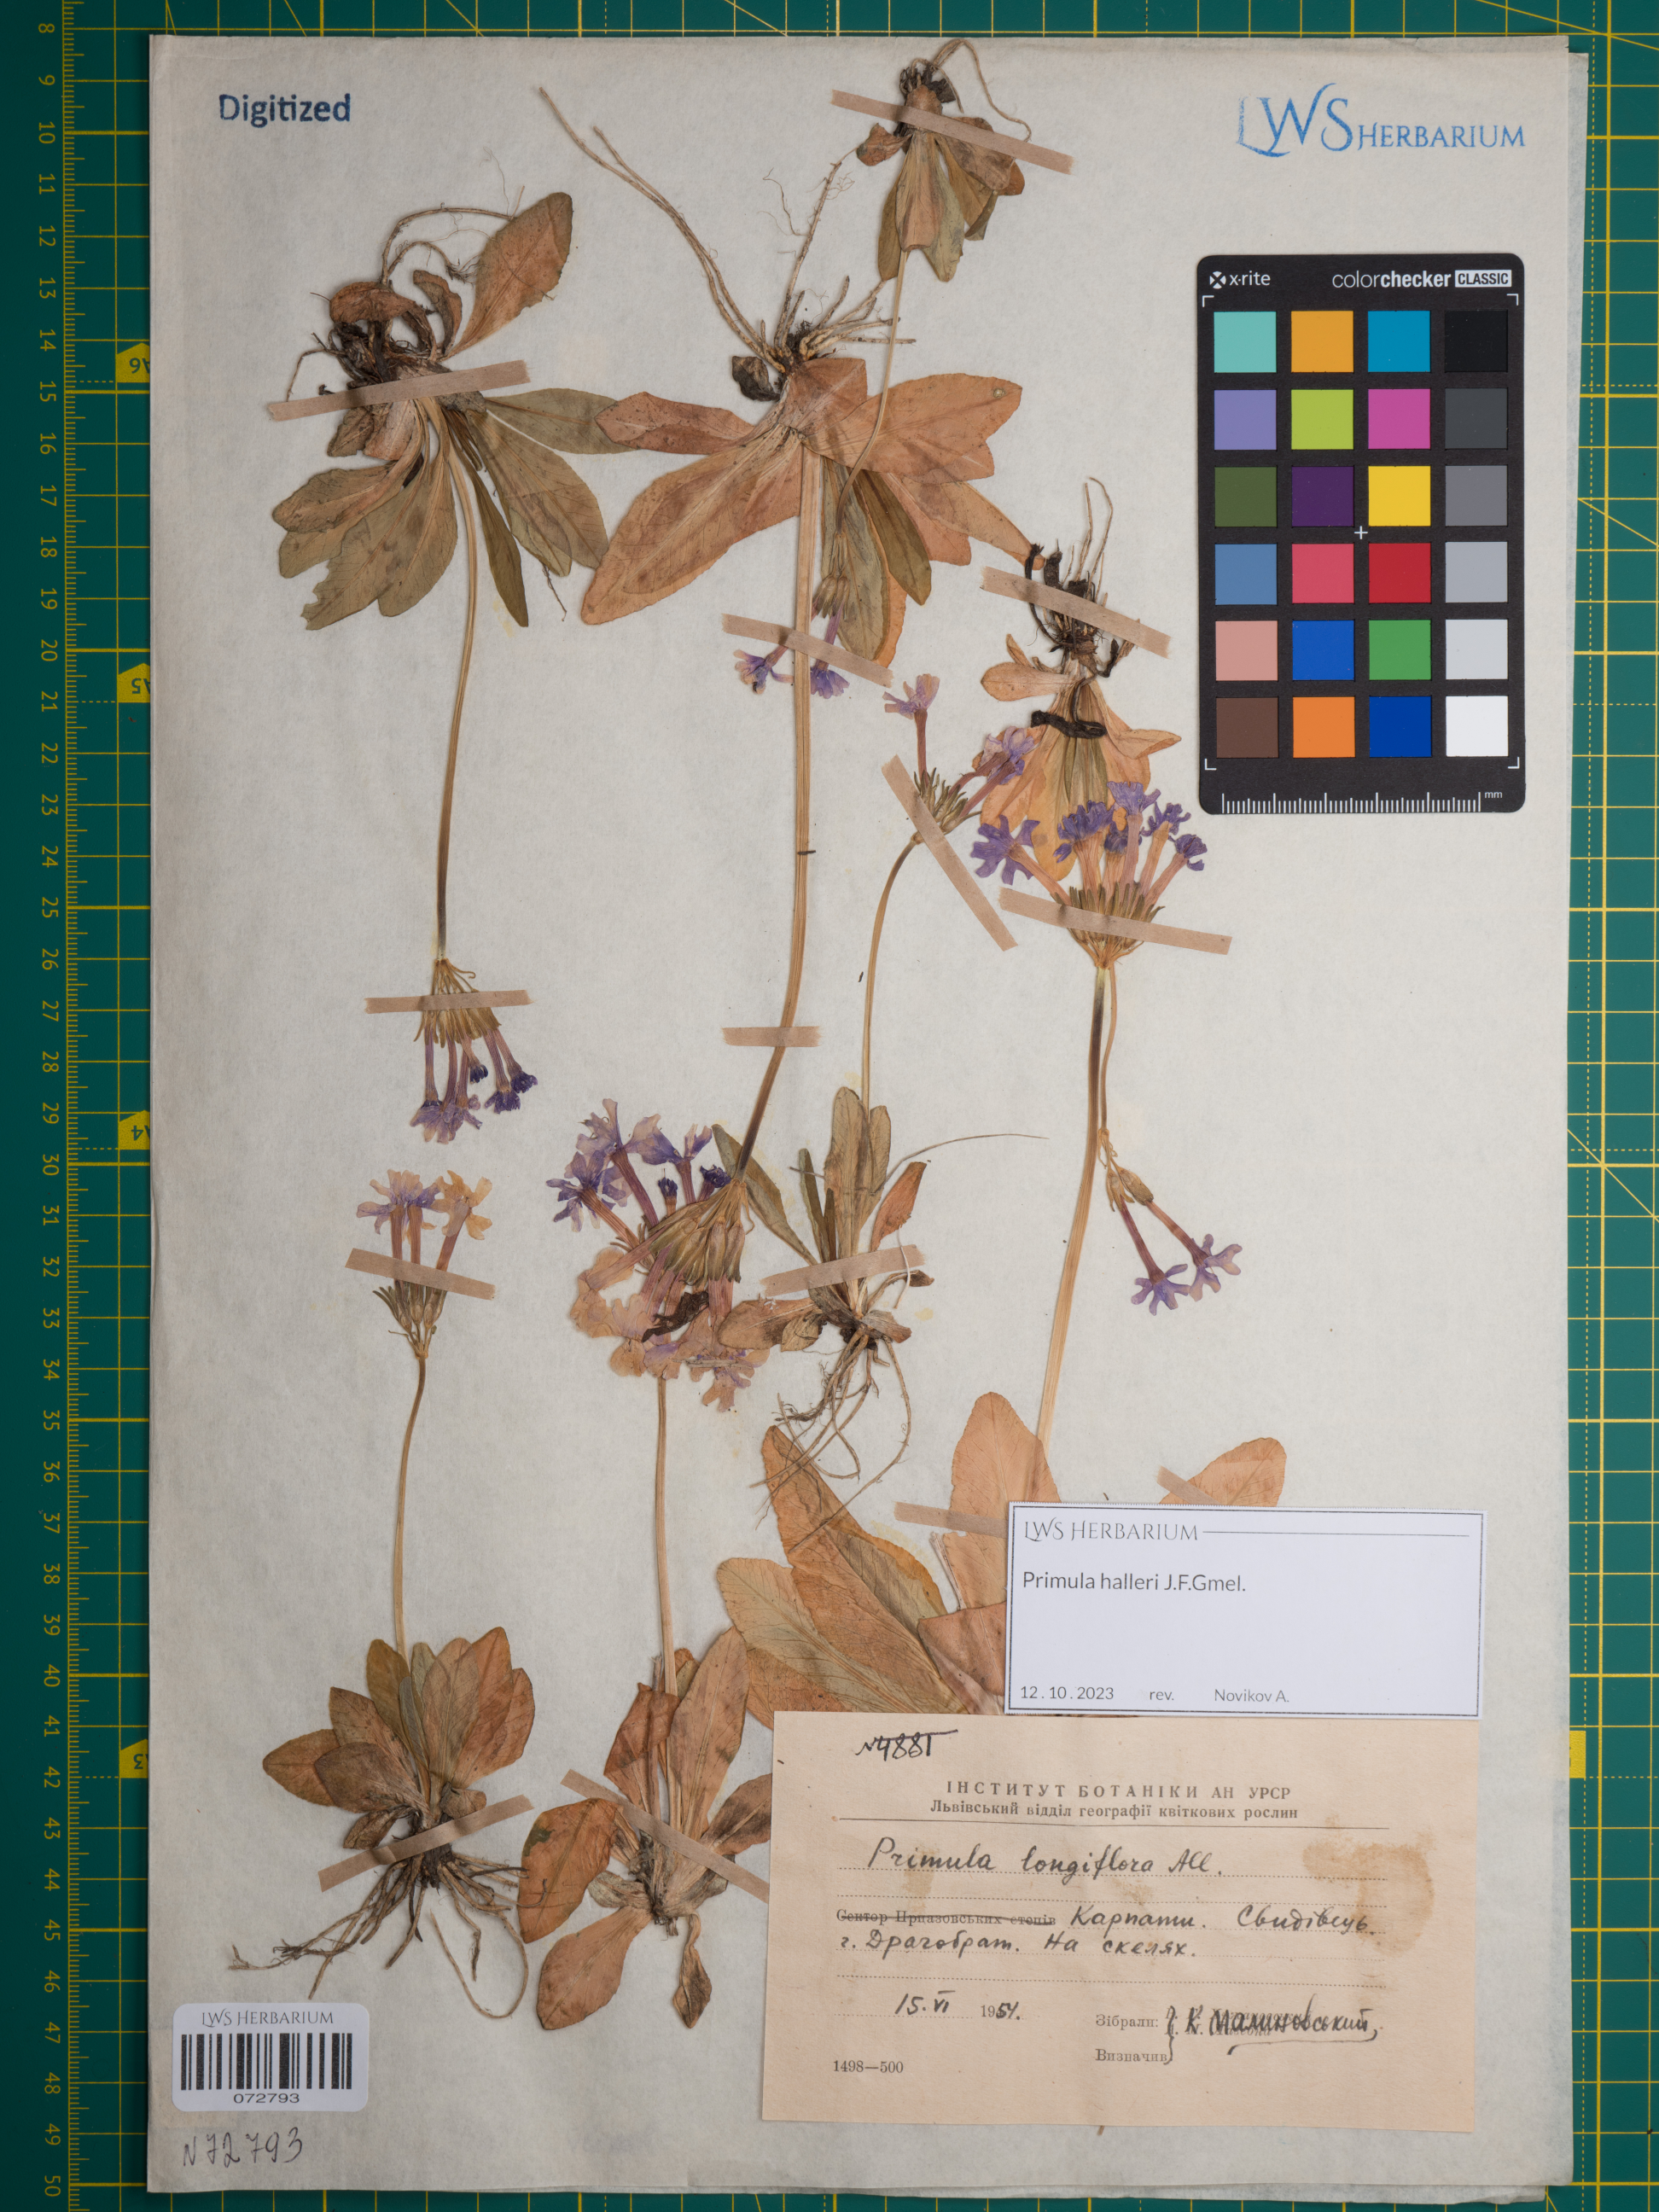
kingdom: Plantae
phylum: Tracheophyta
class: Magnoliopsida
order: Ericales
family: Primulaceae
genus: Primula
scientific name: Primula halleri
